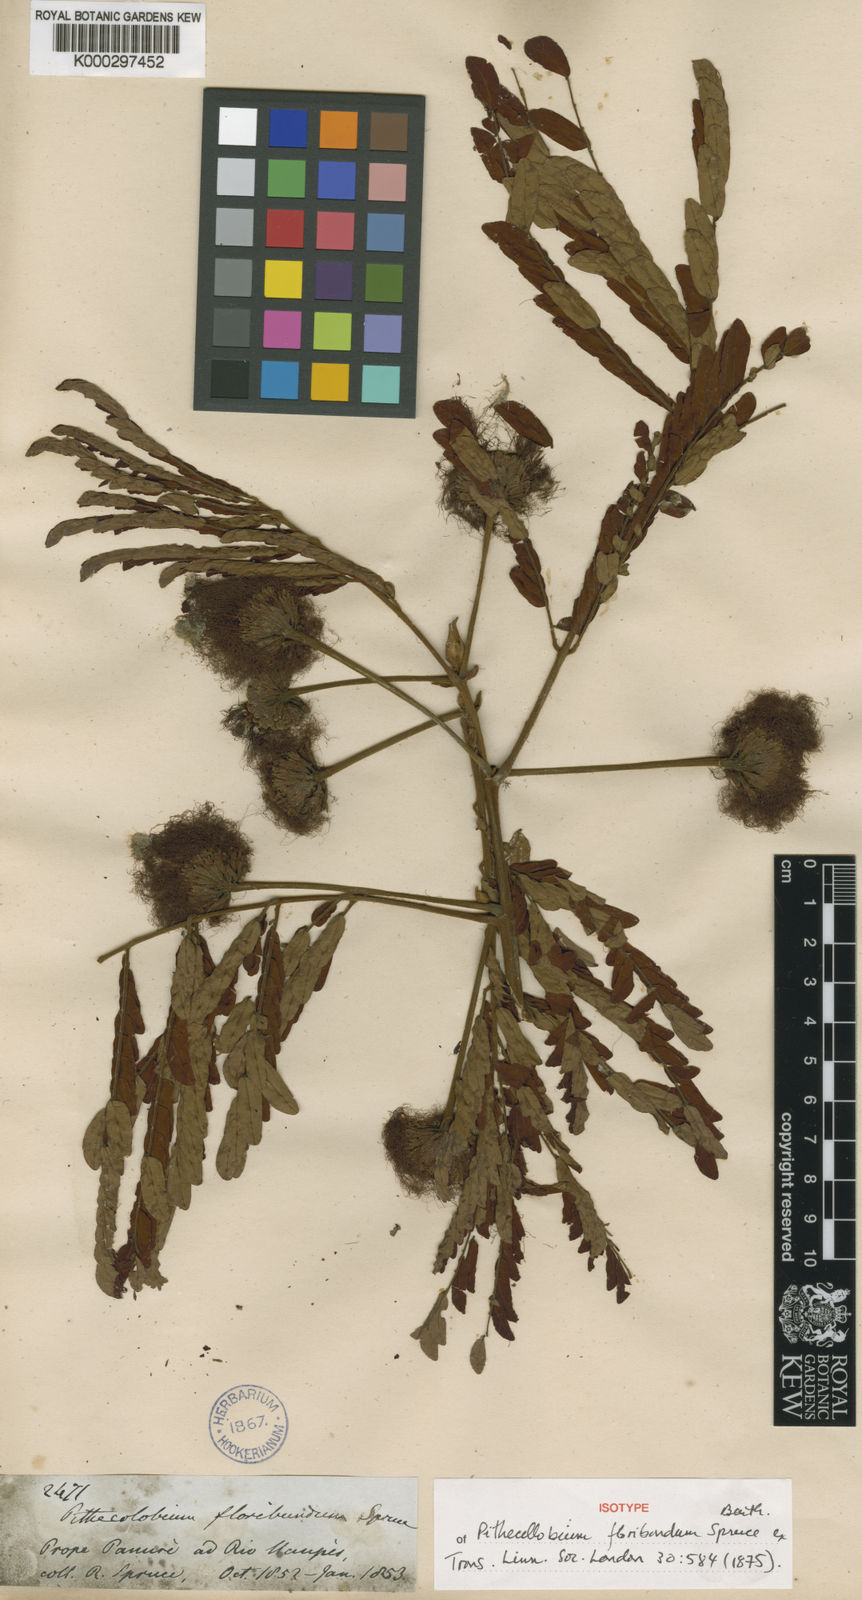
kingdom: Plantae
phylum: Tracheophyta
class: Magnoliopsida
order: Fabales
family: Fabaceae
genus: Jupunba
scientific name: Jupunba floribunda
